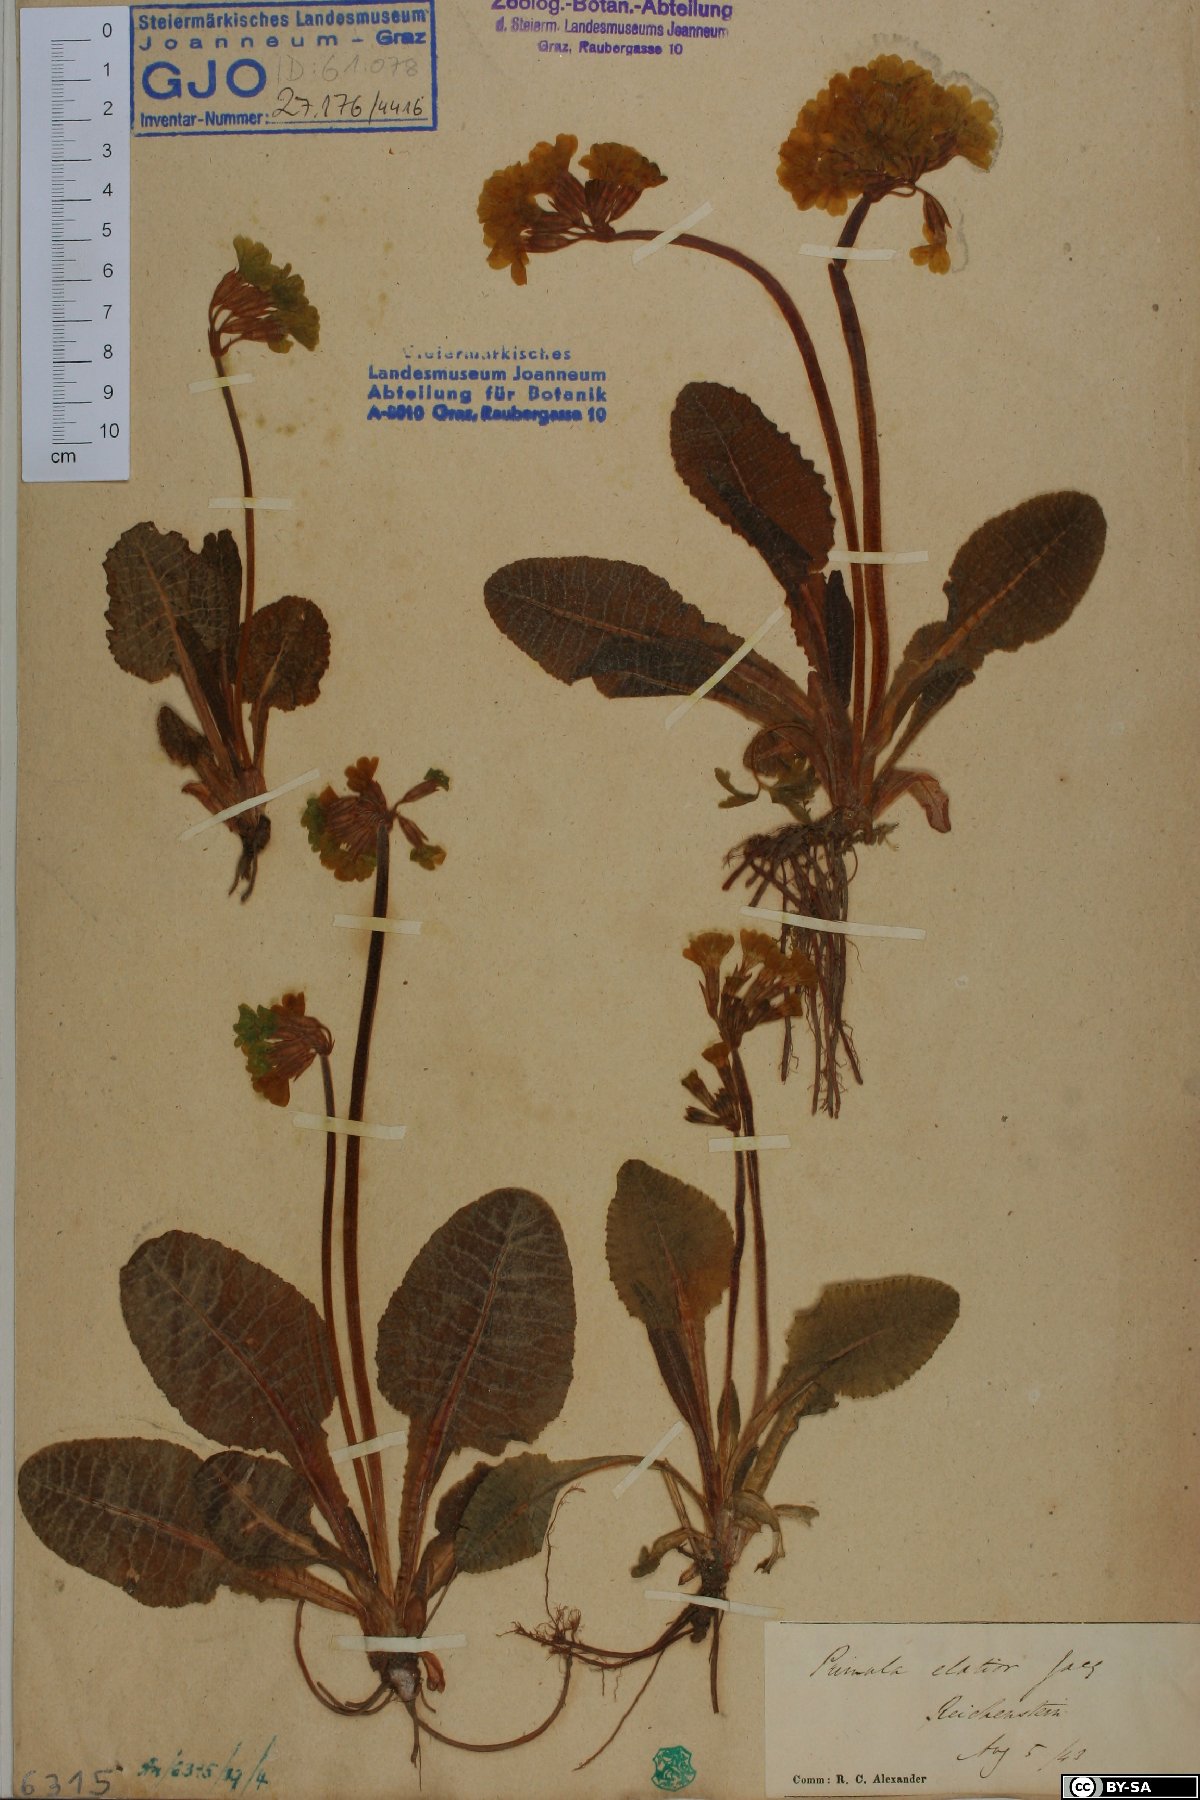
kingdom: Plantae
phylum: Tracheophyta
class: Magnoliopsida
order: Ericales
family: Primulaceae
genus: Primula
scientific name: Primula elatior
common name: Oxlip
